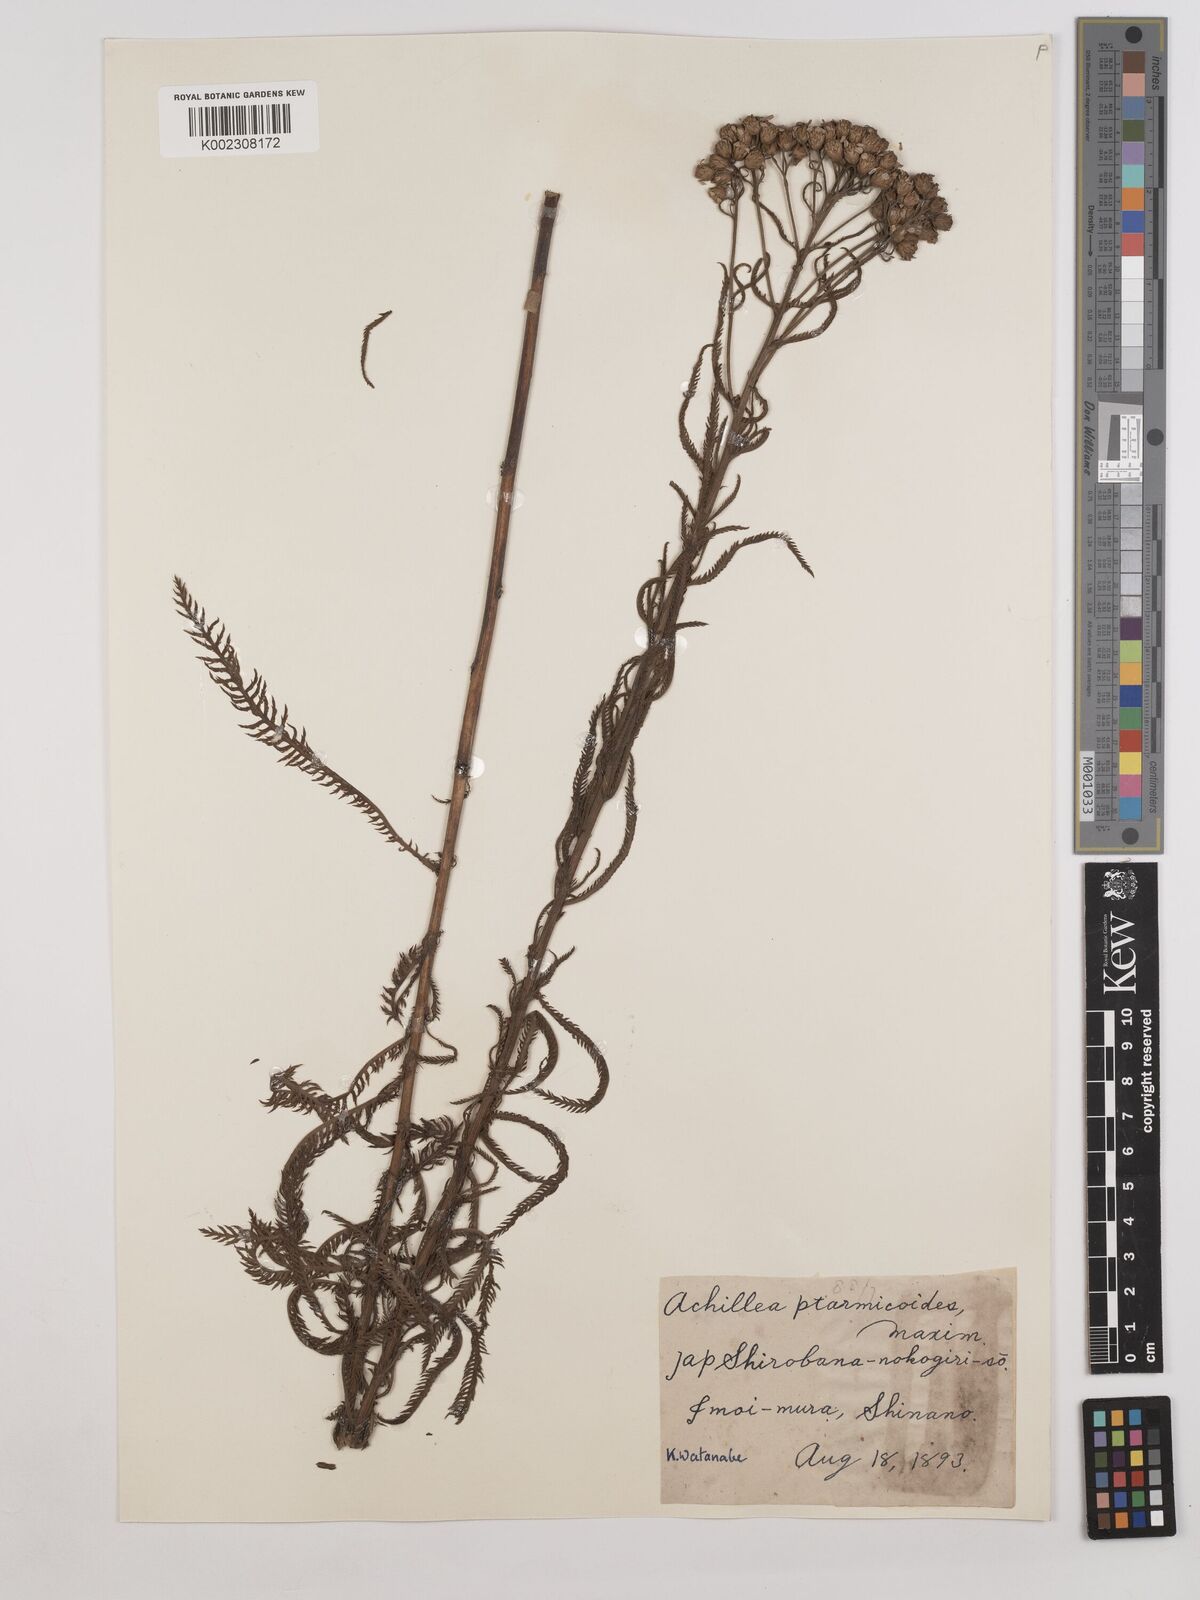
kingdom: Plantae
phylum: Tracheophyta
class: Magnoliopsida
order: Asterales
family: Asteraceae
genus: Achillea
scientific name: Achillea ptarmicoides
